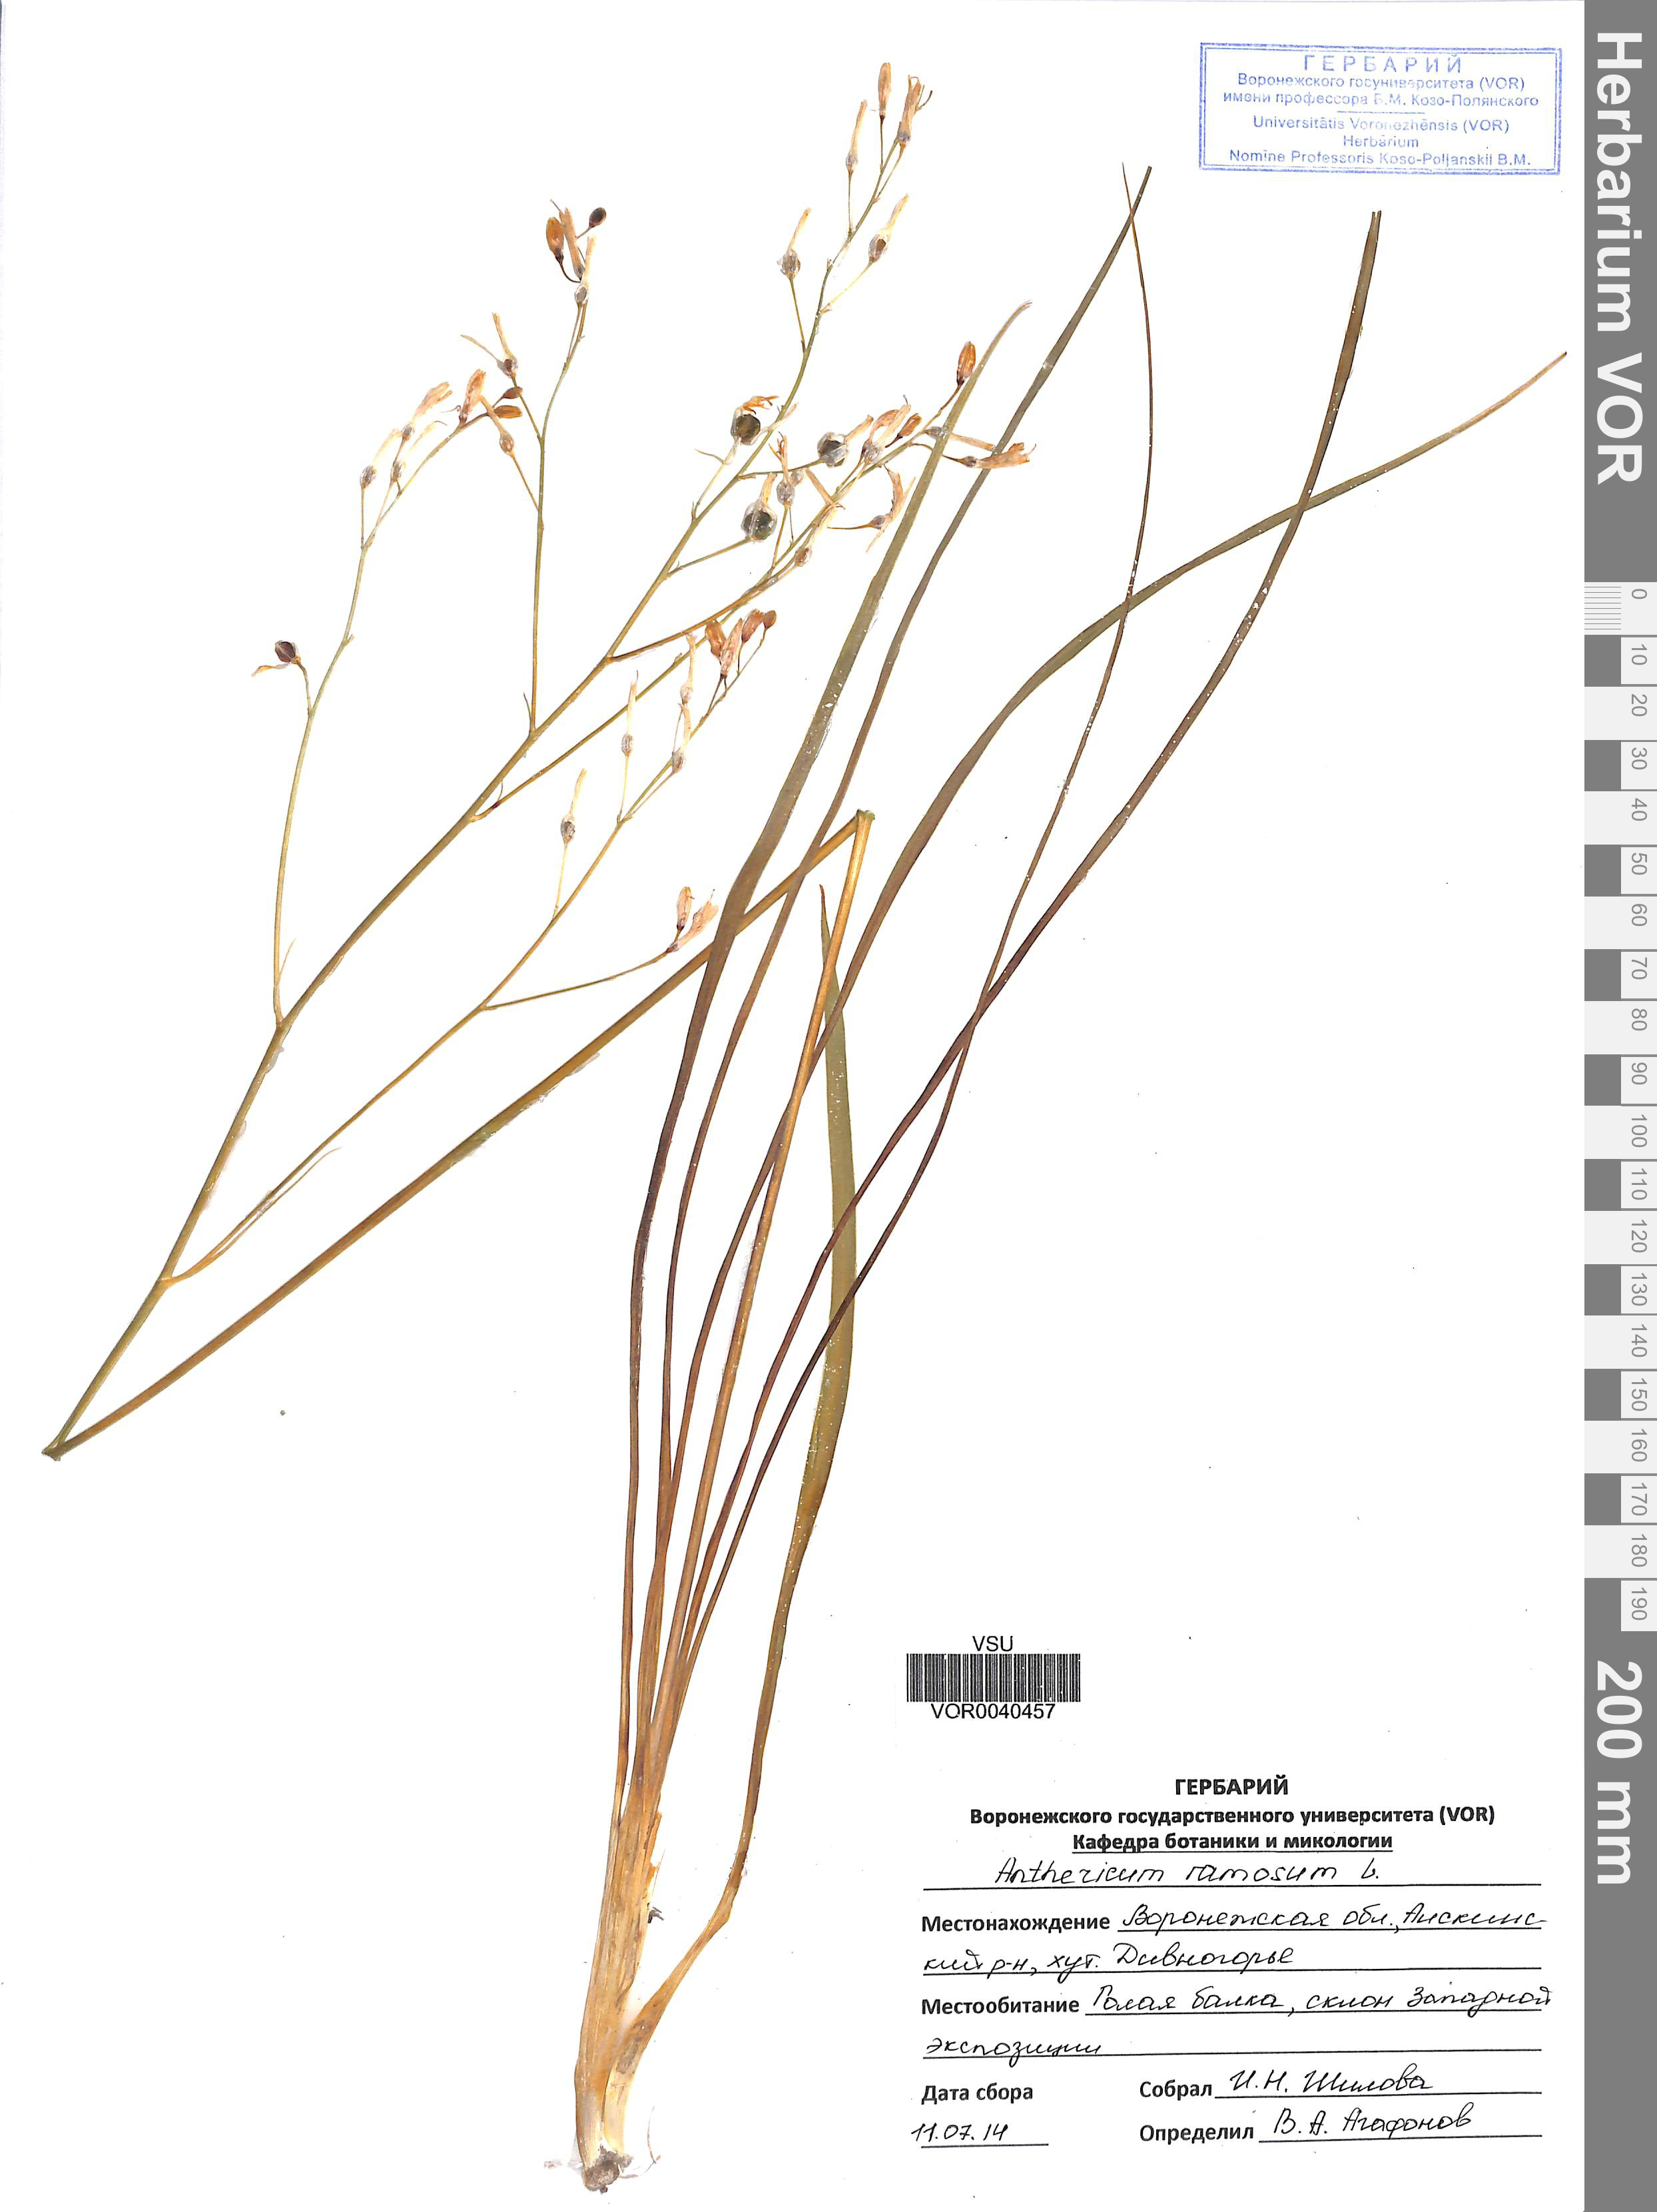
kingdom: Plantae
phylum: Tracheophyta
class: Liliopsida
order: Asparagales
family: Asparagaceae
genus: Anthericum
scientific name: Anthericum ramosum
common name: Branched st. bernard's-lily
